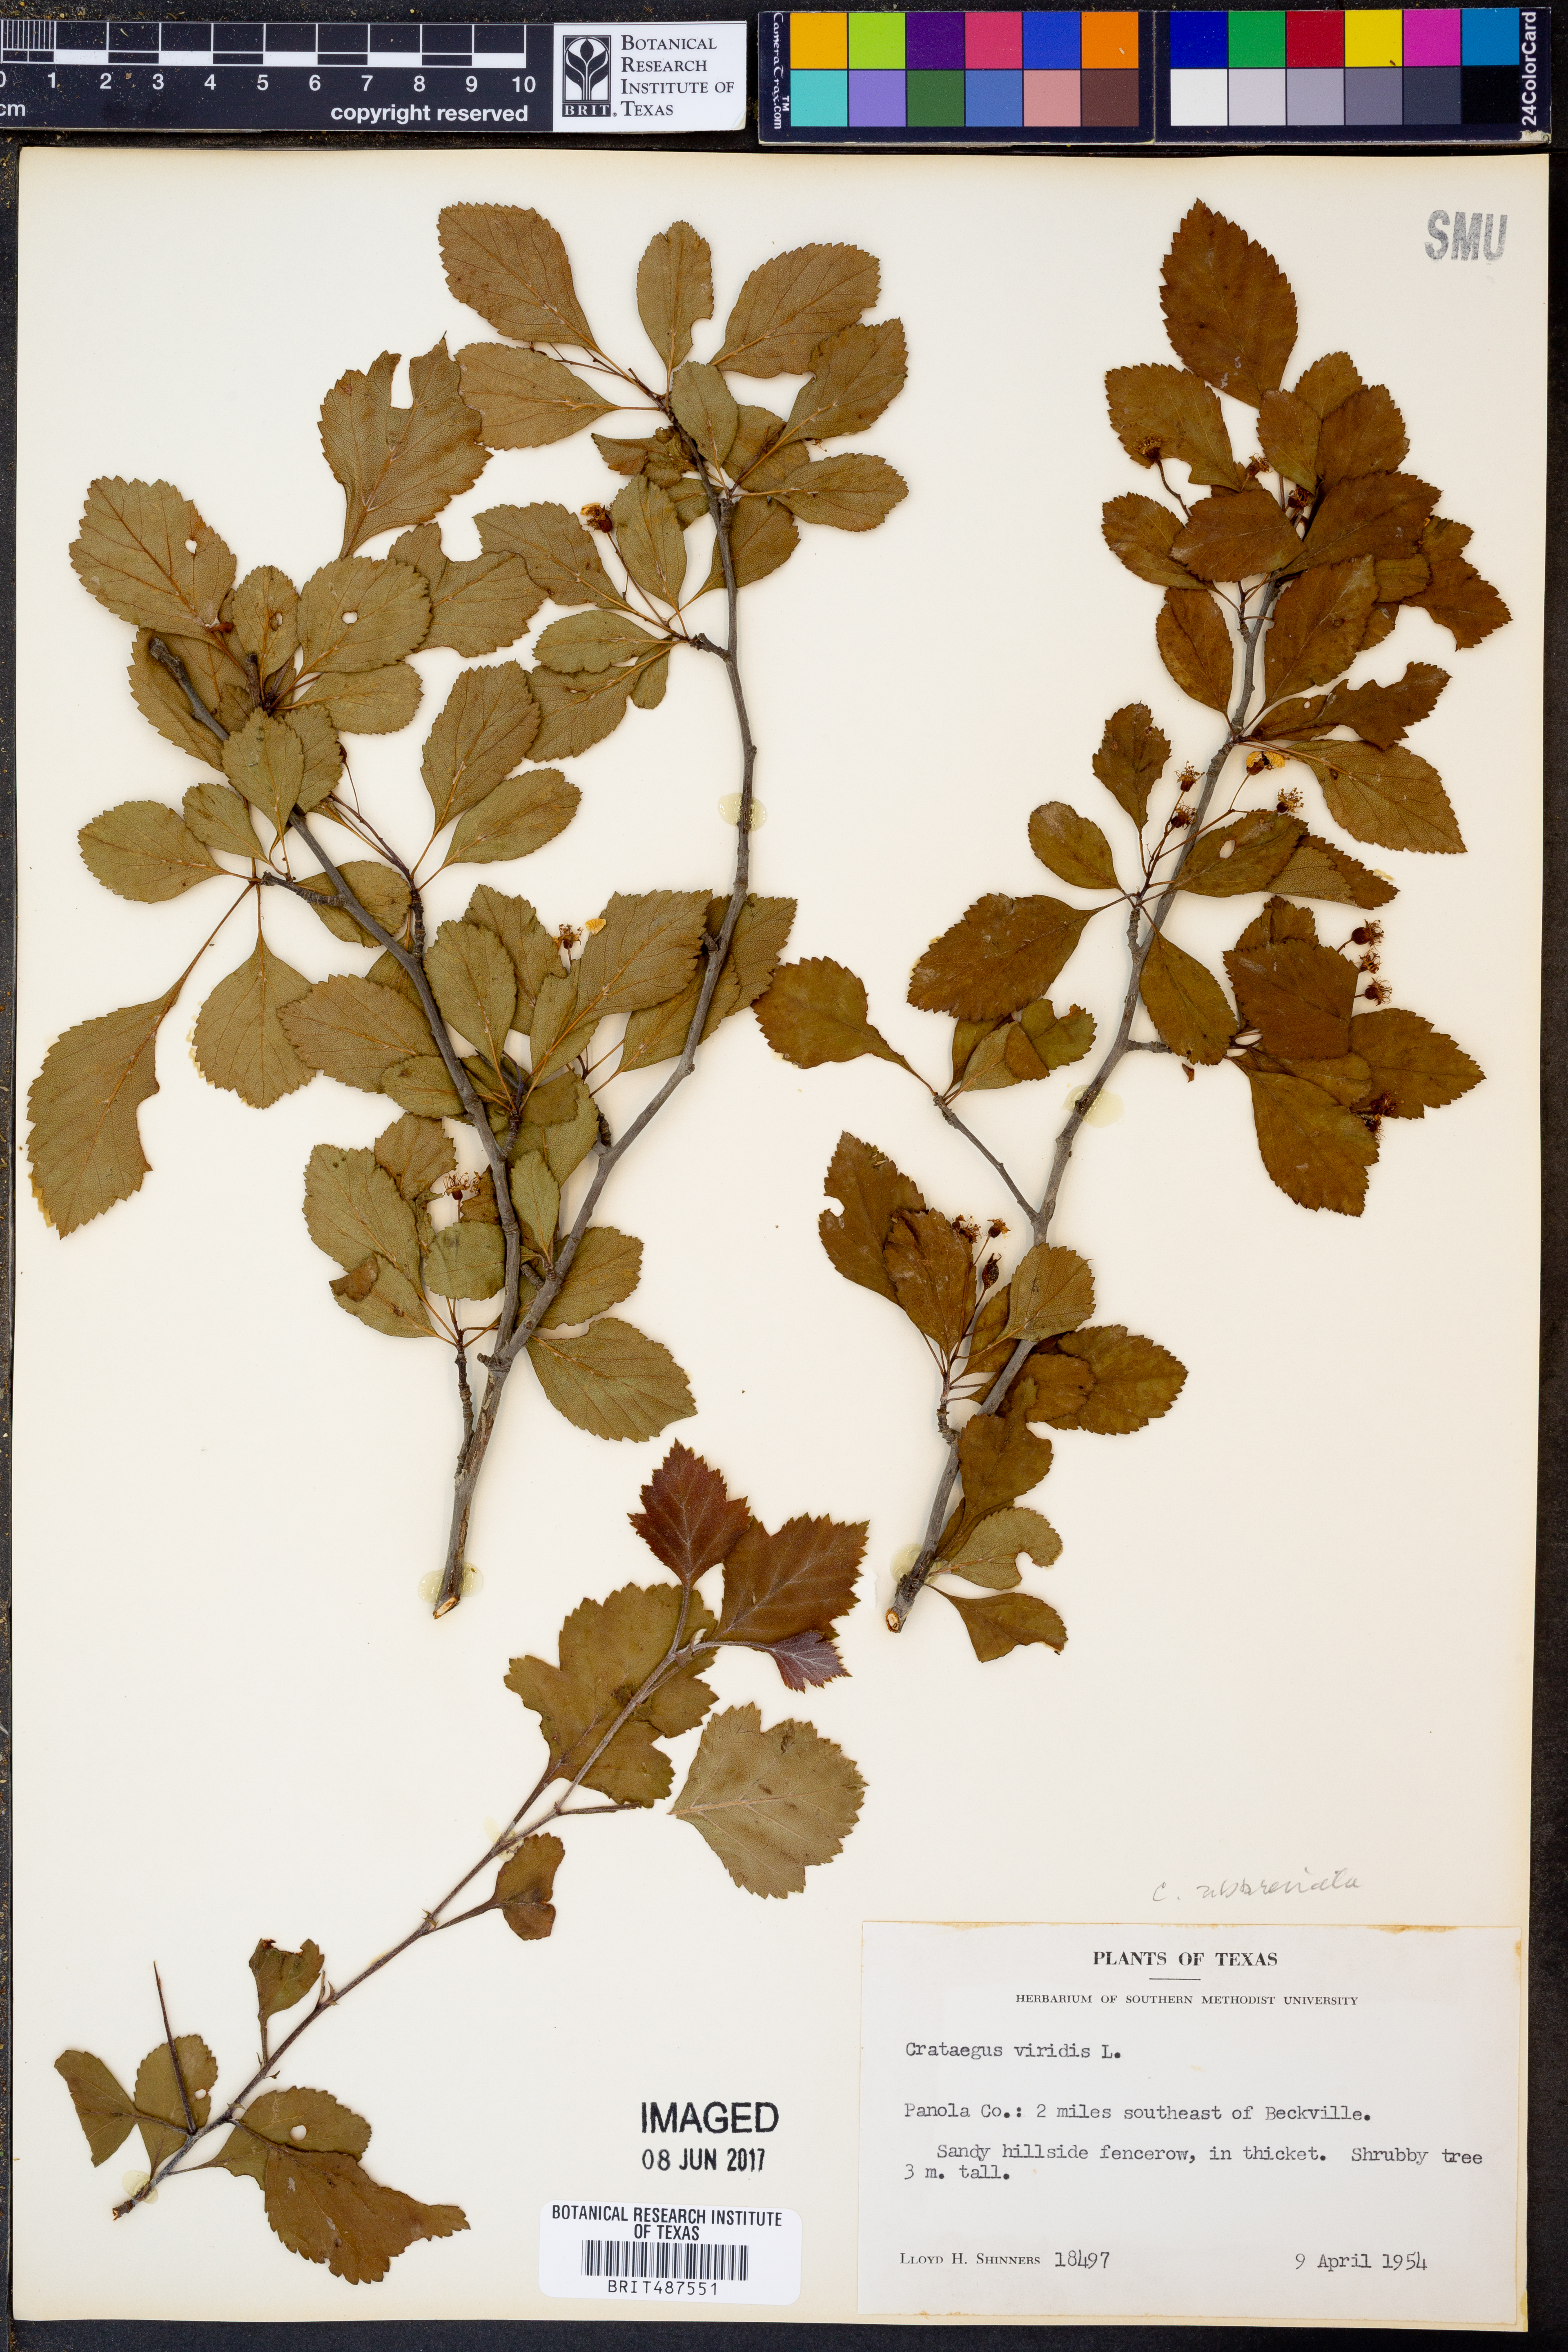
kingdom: Plantae
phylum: Tracheophyta
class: Magnoliopsida
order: Rosales
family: Rosaceae
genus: Crataegus
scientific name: Crataegus viridis
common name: Southernthorn
